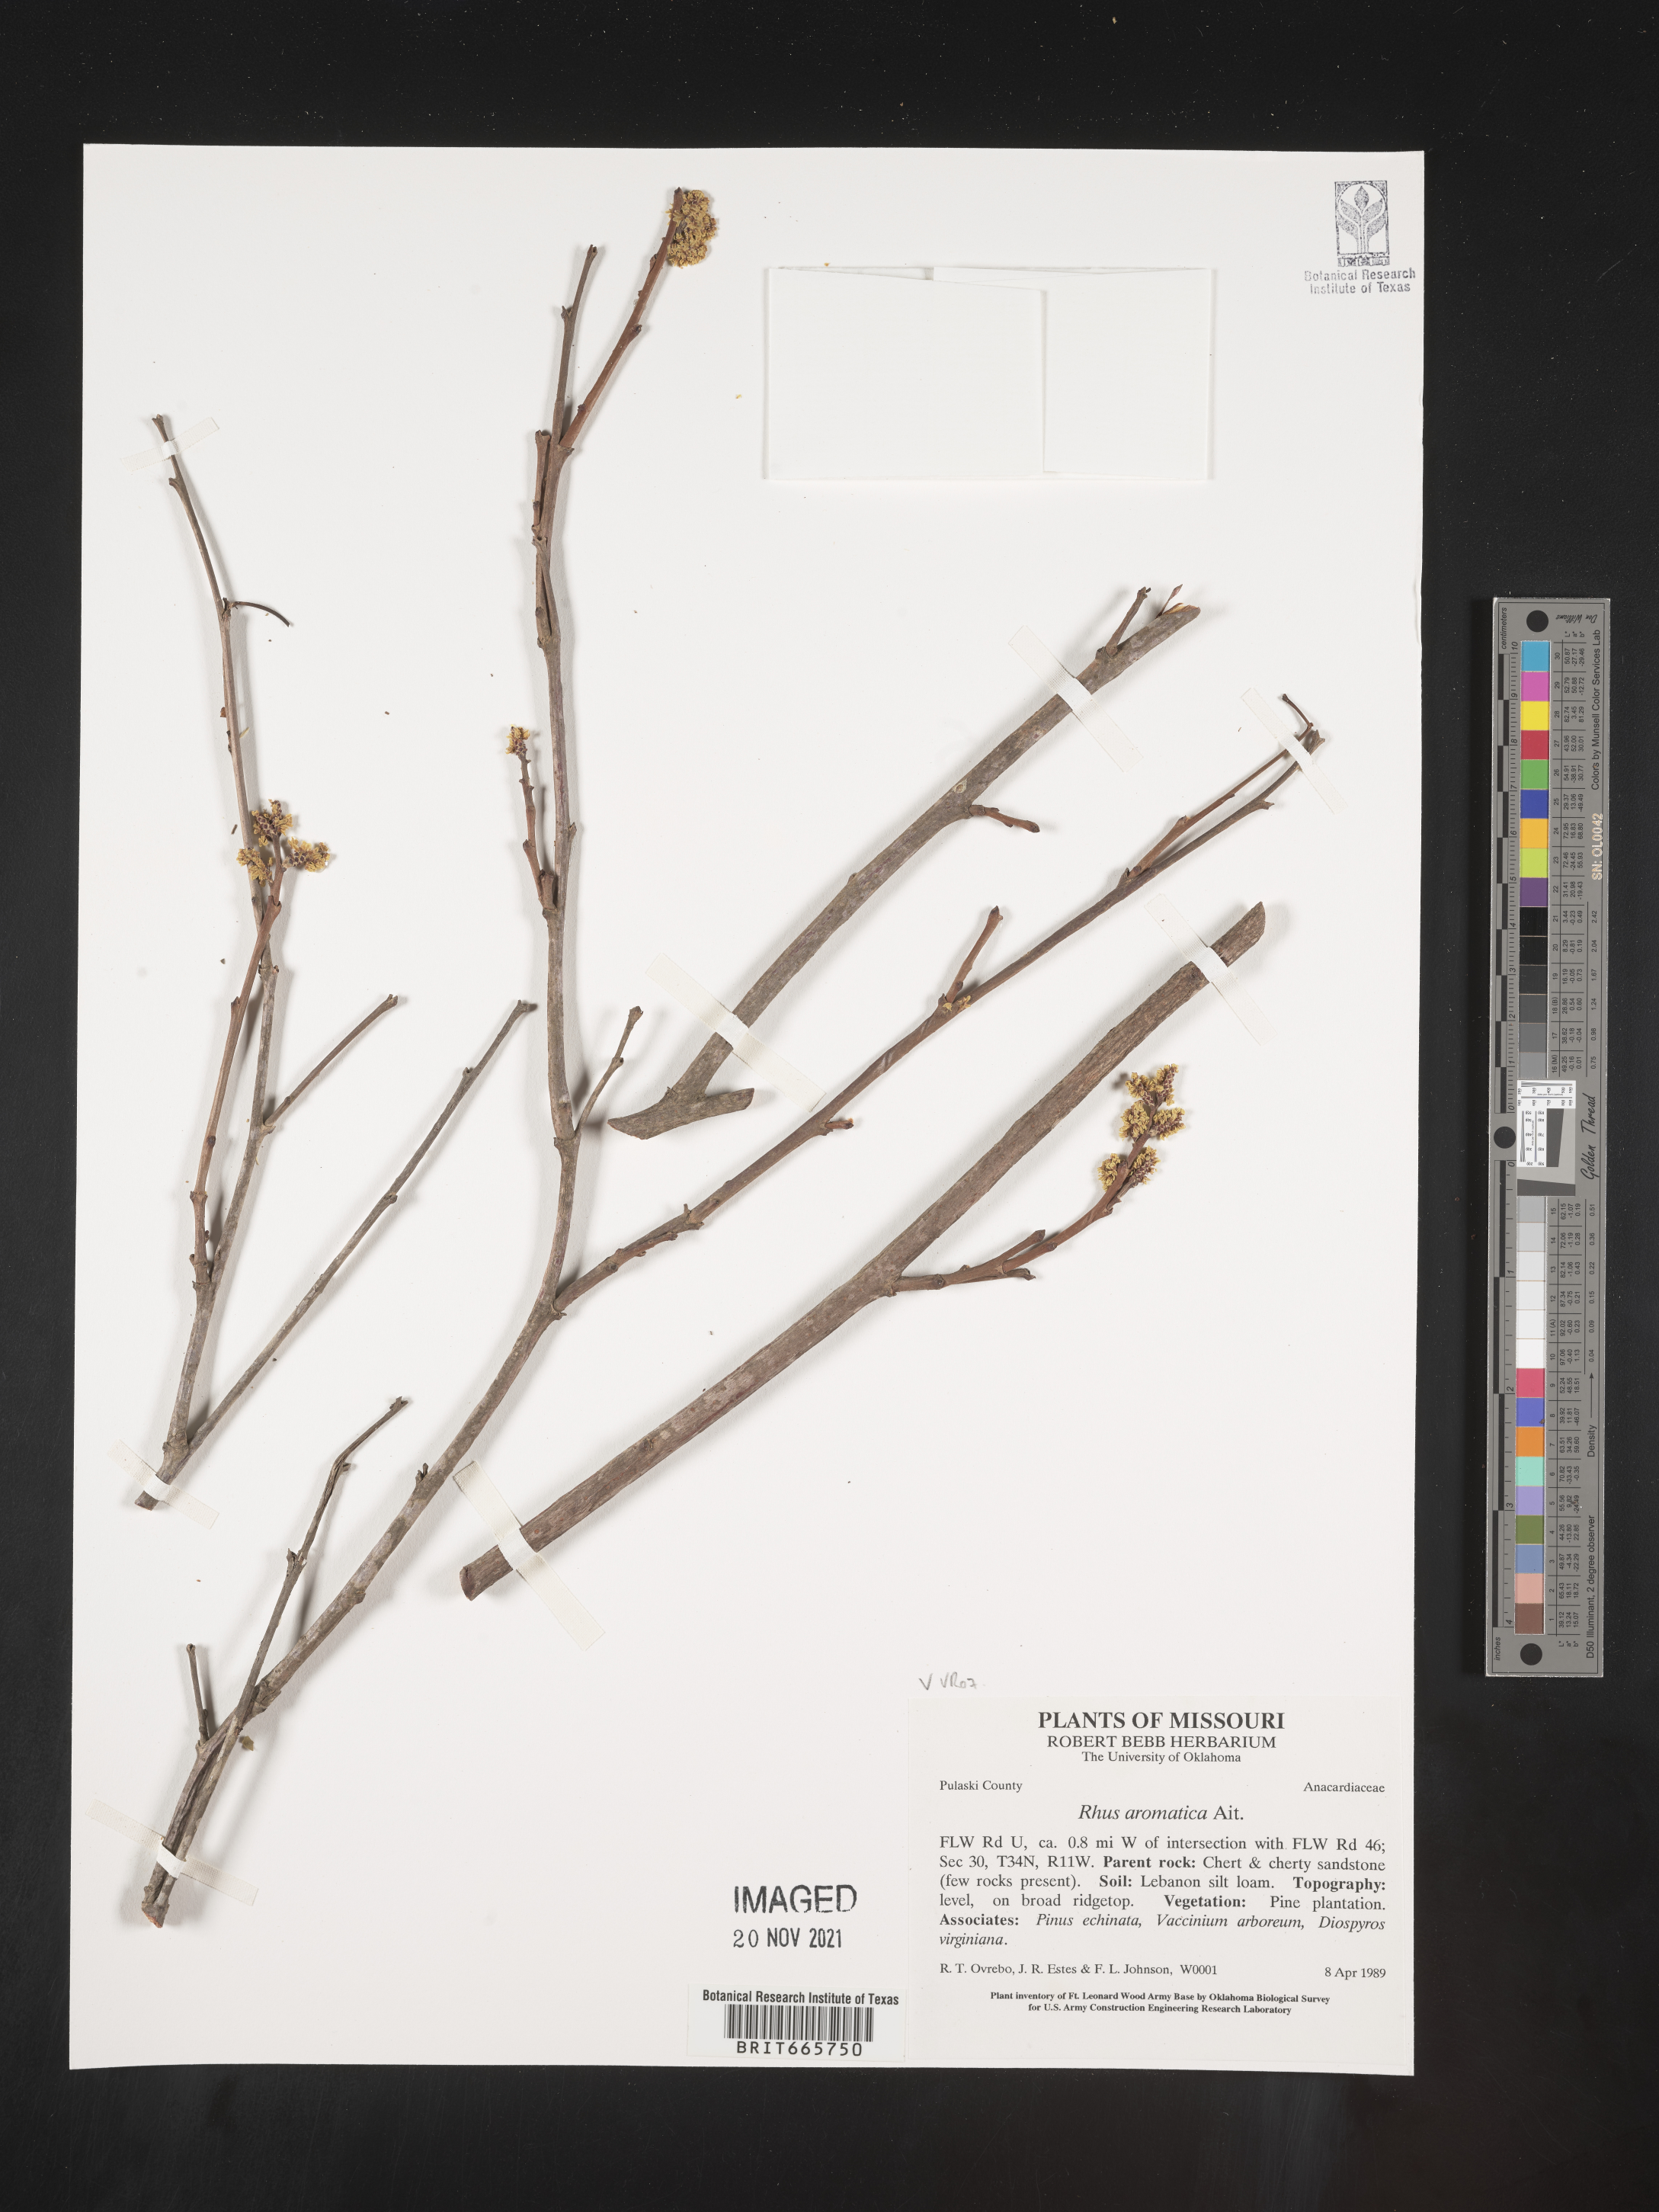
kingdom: Plantae
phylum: Tracheophyta
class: Magnoliopsida
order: Sapindales
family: Anacardiaceae
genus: Rhus
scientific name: Rhus aromatica
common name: Aromatic sumac
